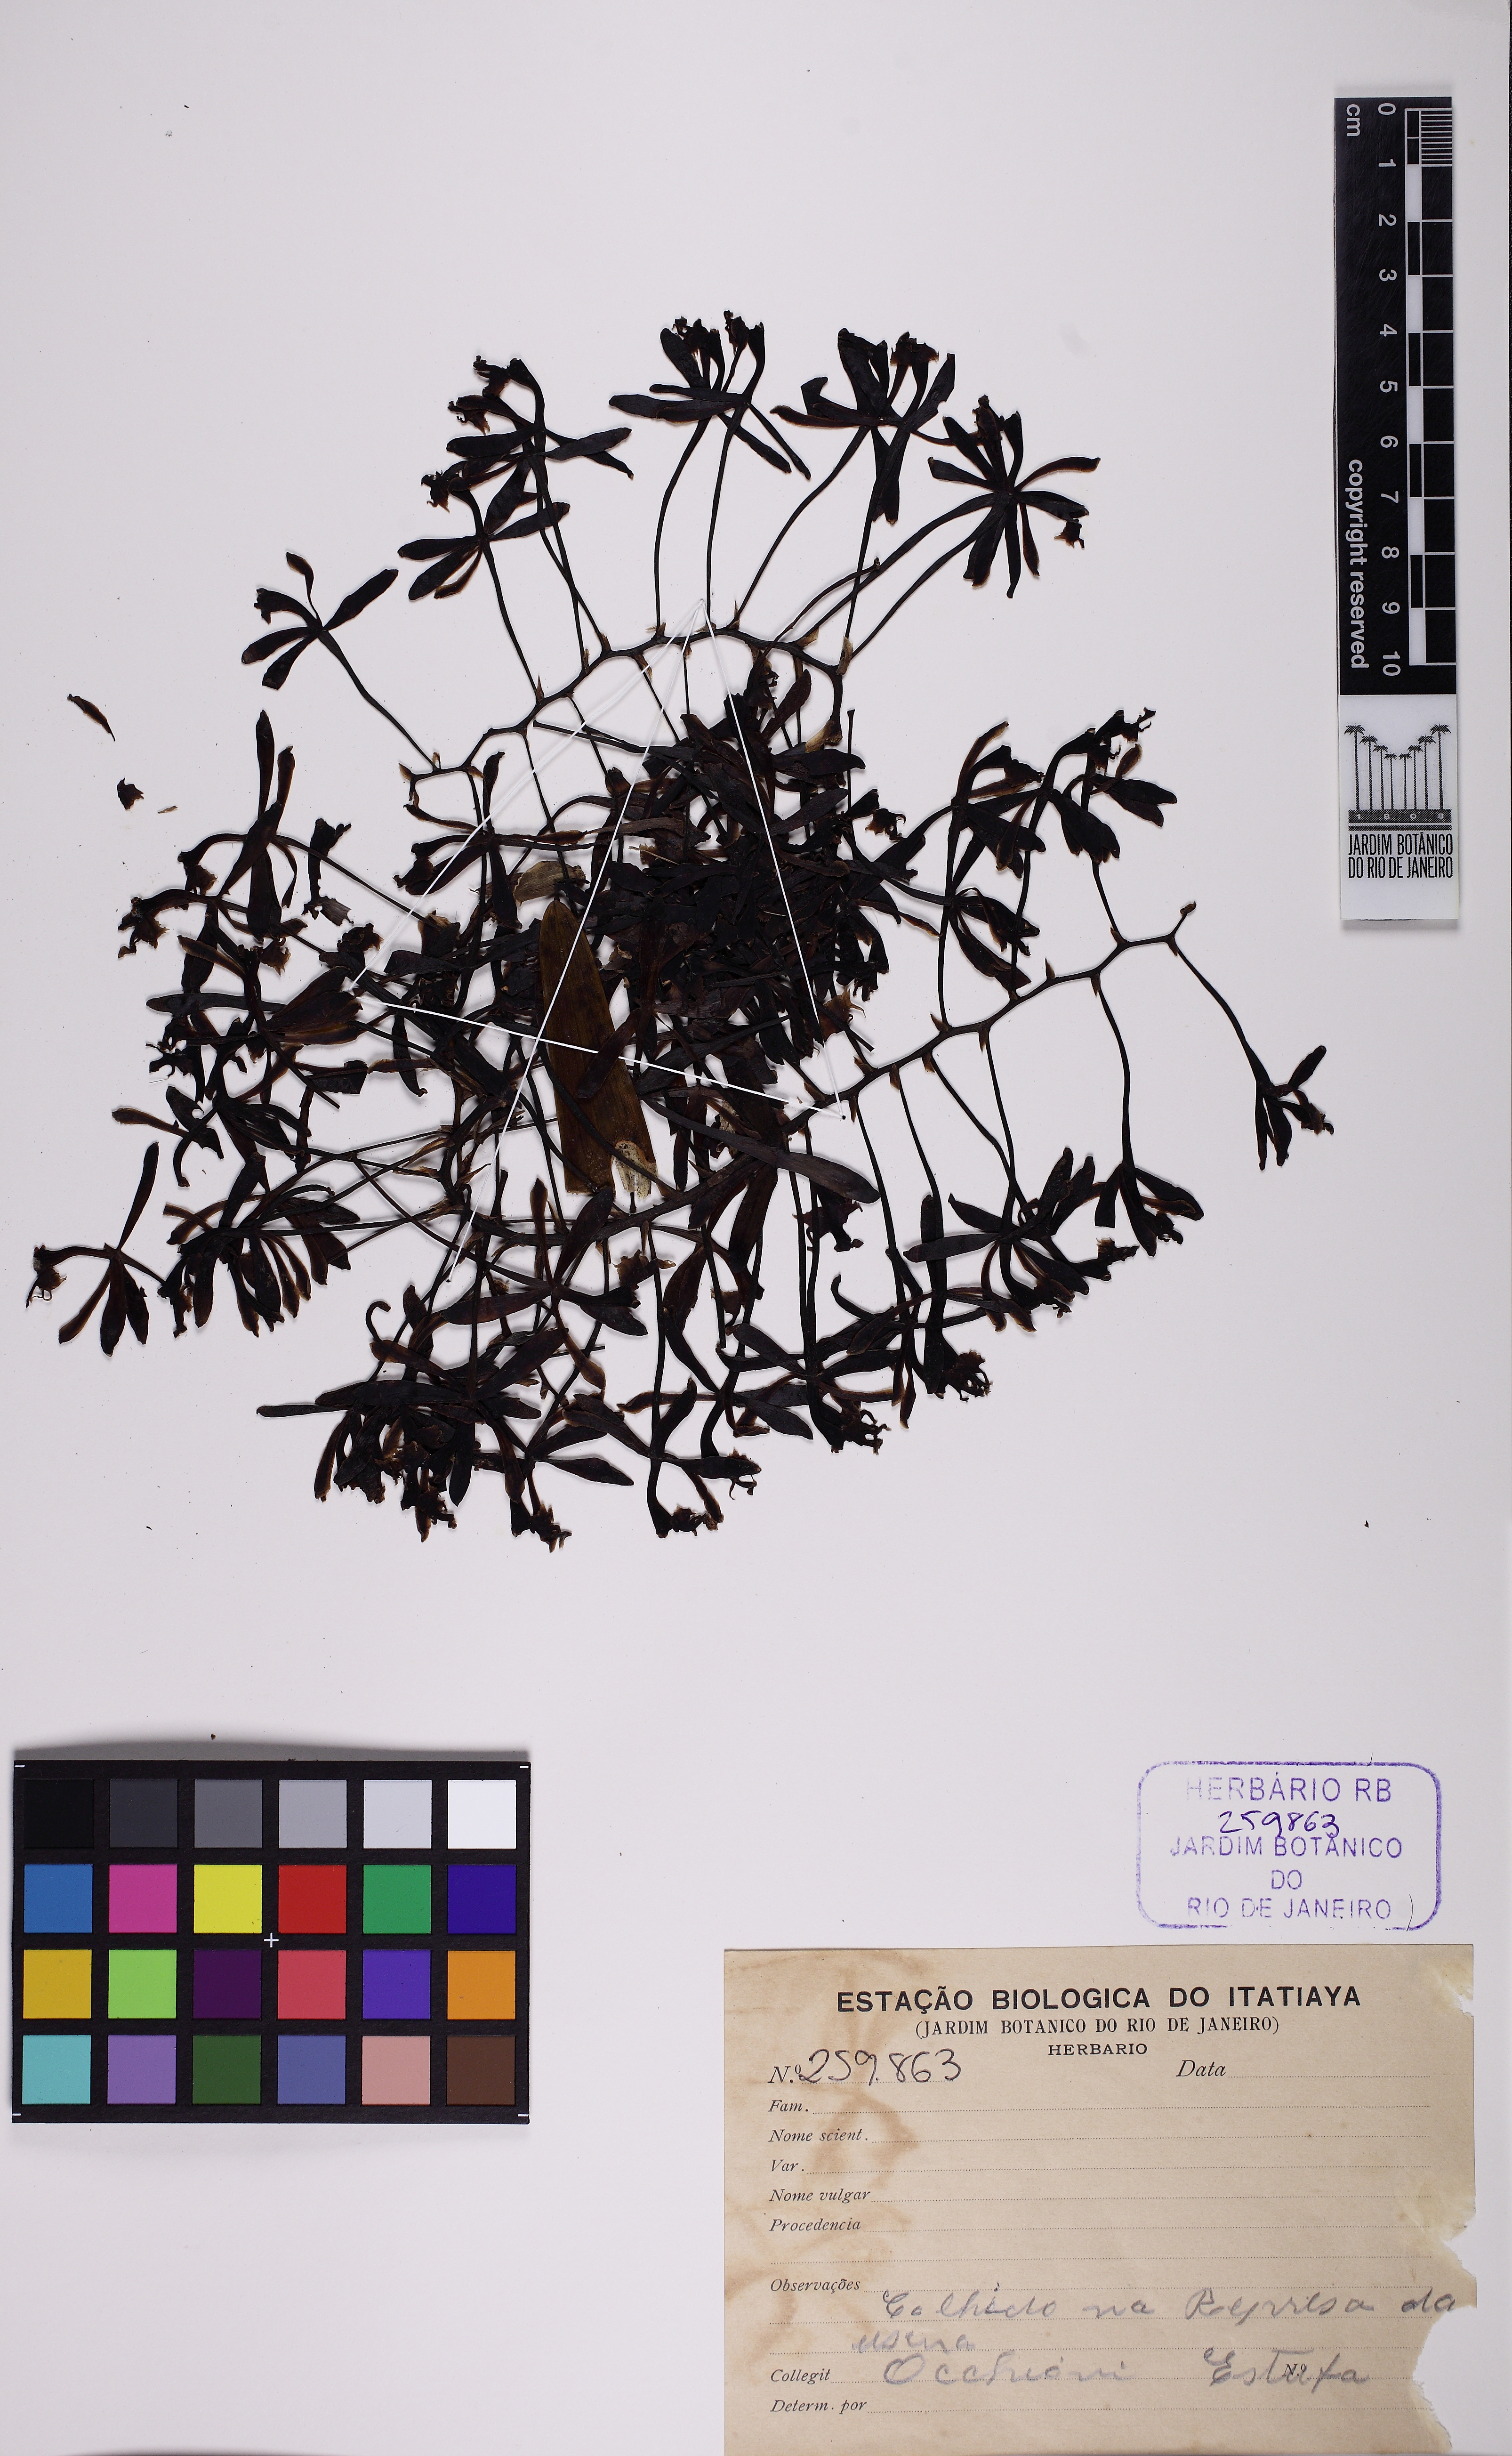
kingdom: Plantae
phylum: Tracheophyta
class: Liliopsida
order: Asparagales
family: Orchidaceae
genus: Epidendrum
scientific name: Epidendrum cristatum
